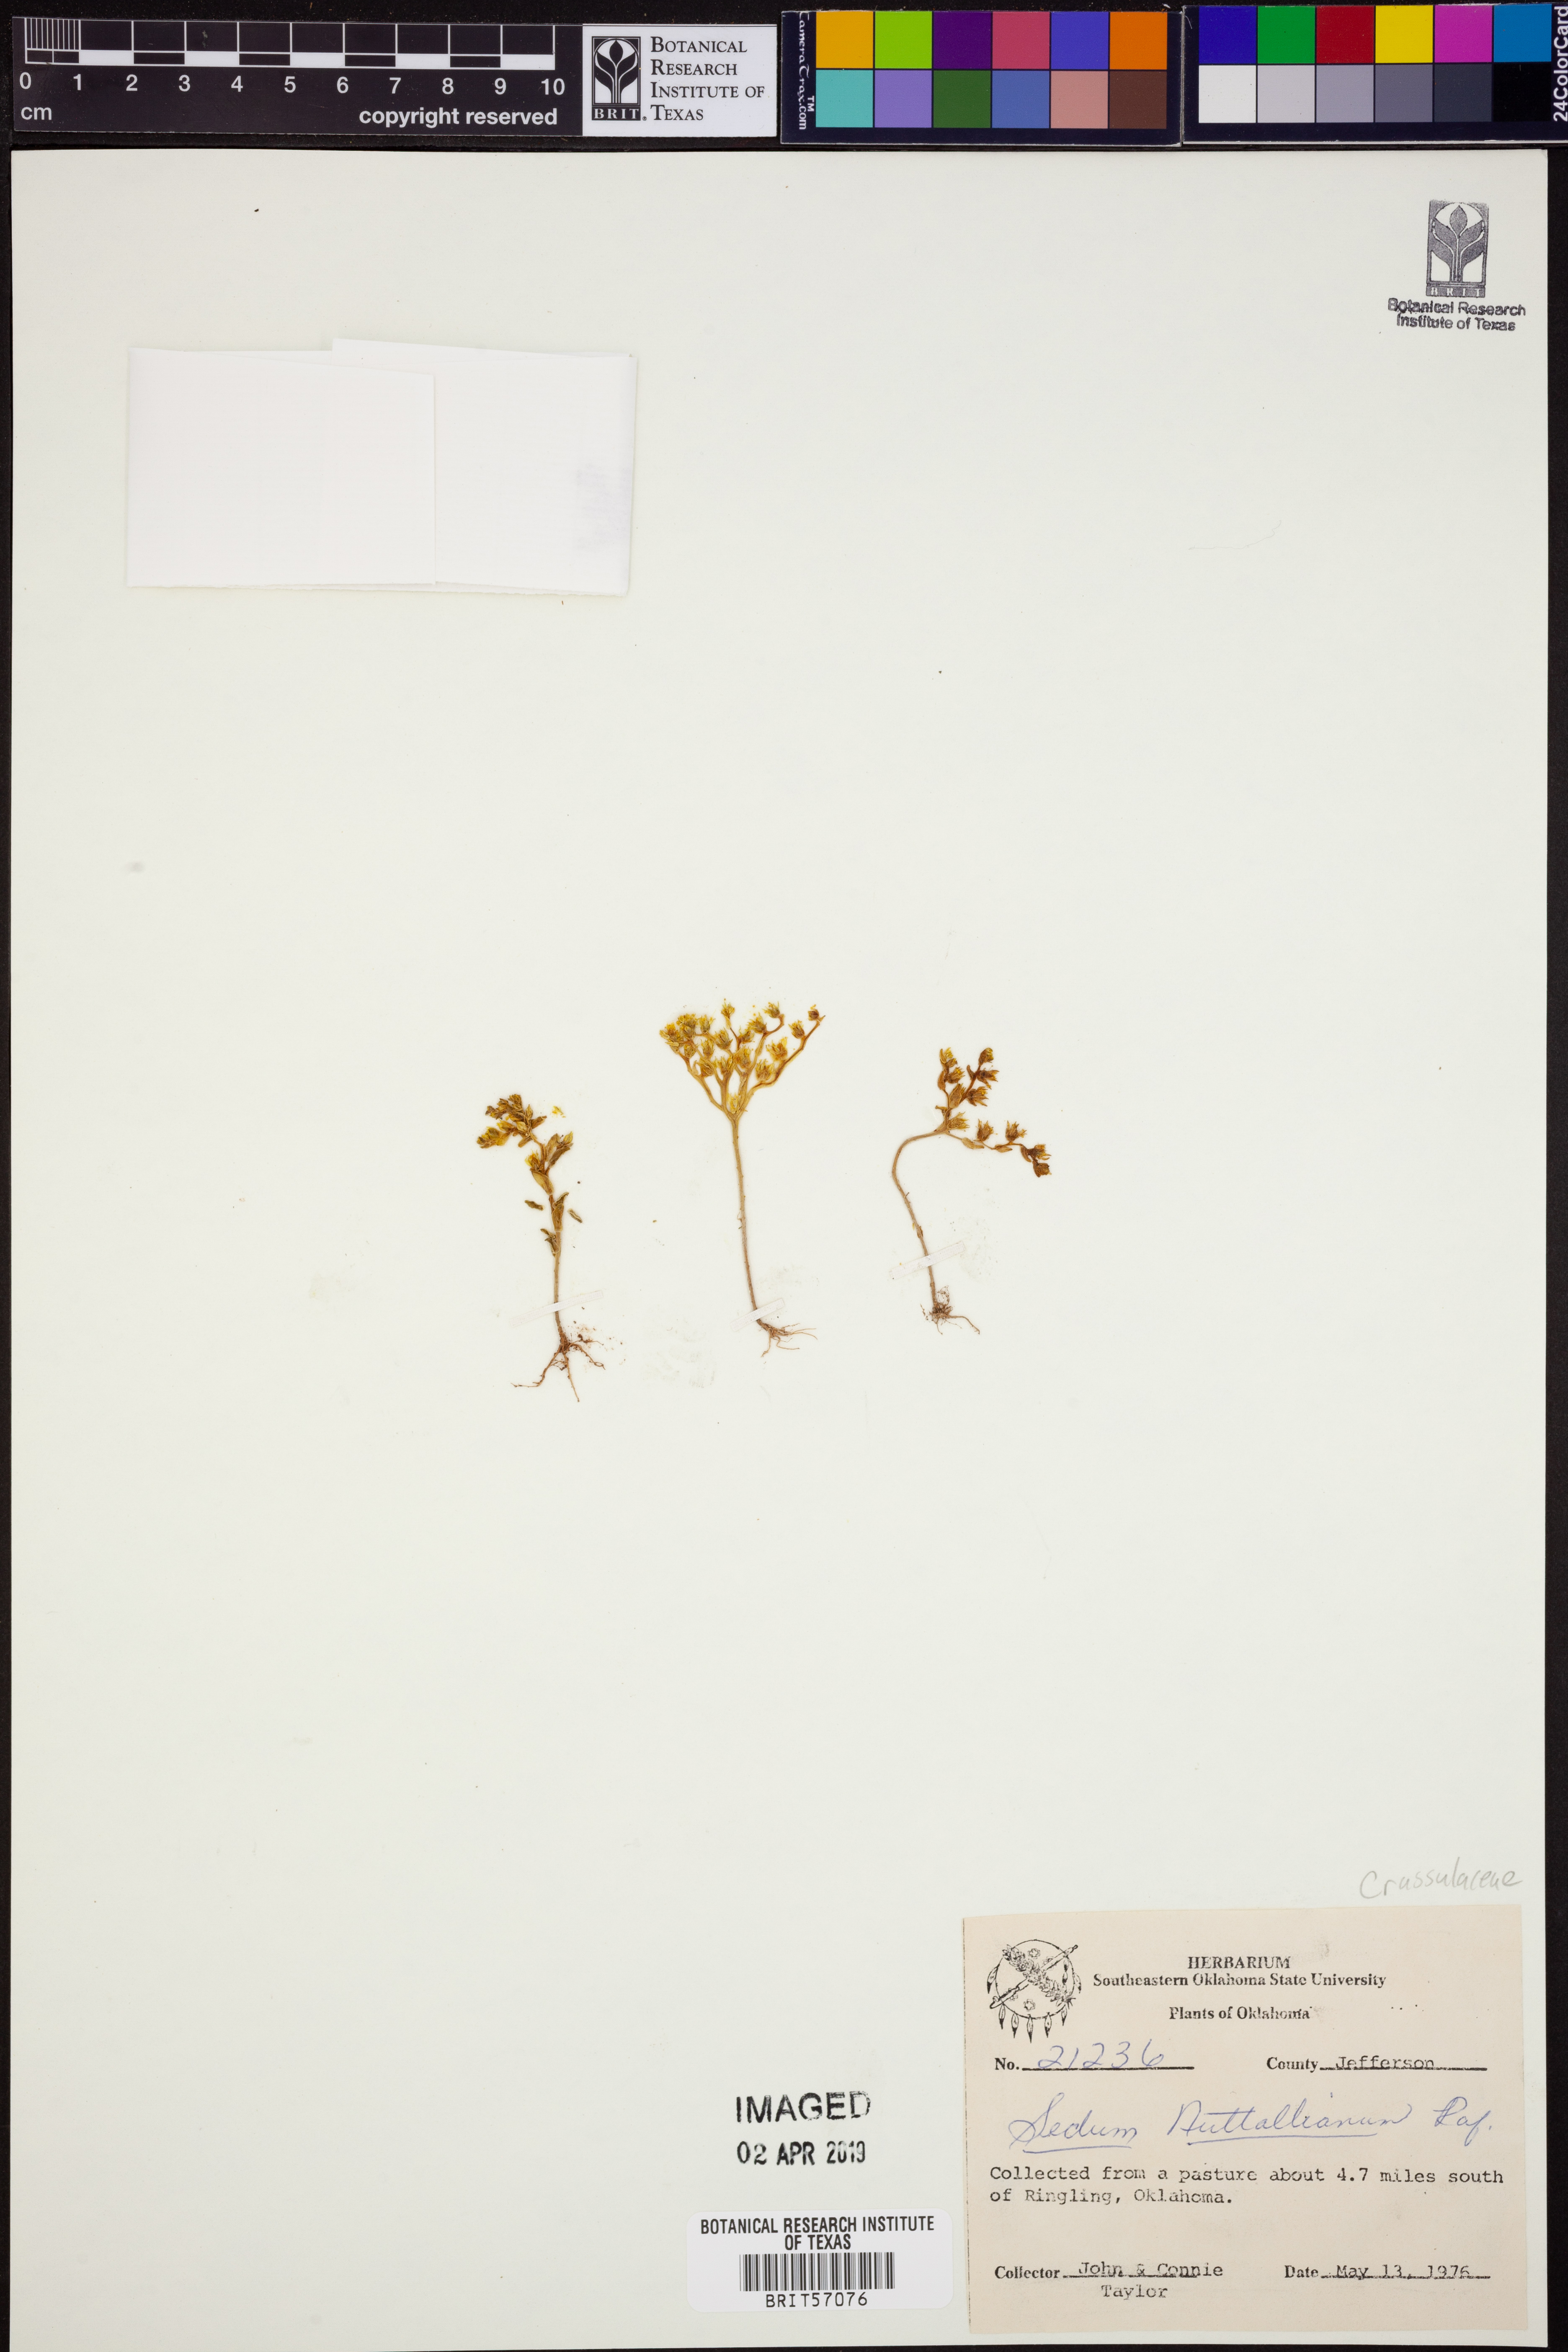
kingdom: Plantae
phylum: Tracheophyta
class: Magnoliopsida
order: Saxifragales
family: Crassulaceae
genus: Sedum
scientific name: Sedum nuttallii
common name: Yellow stonecrop
